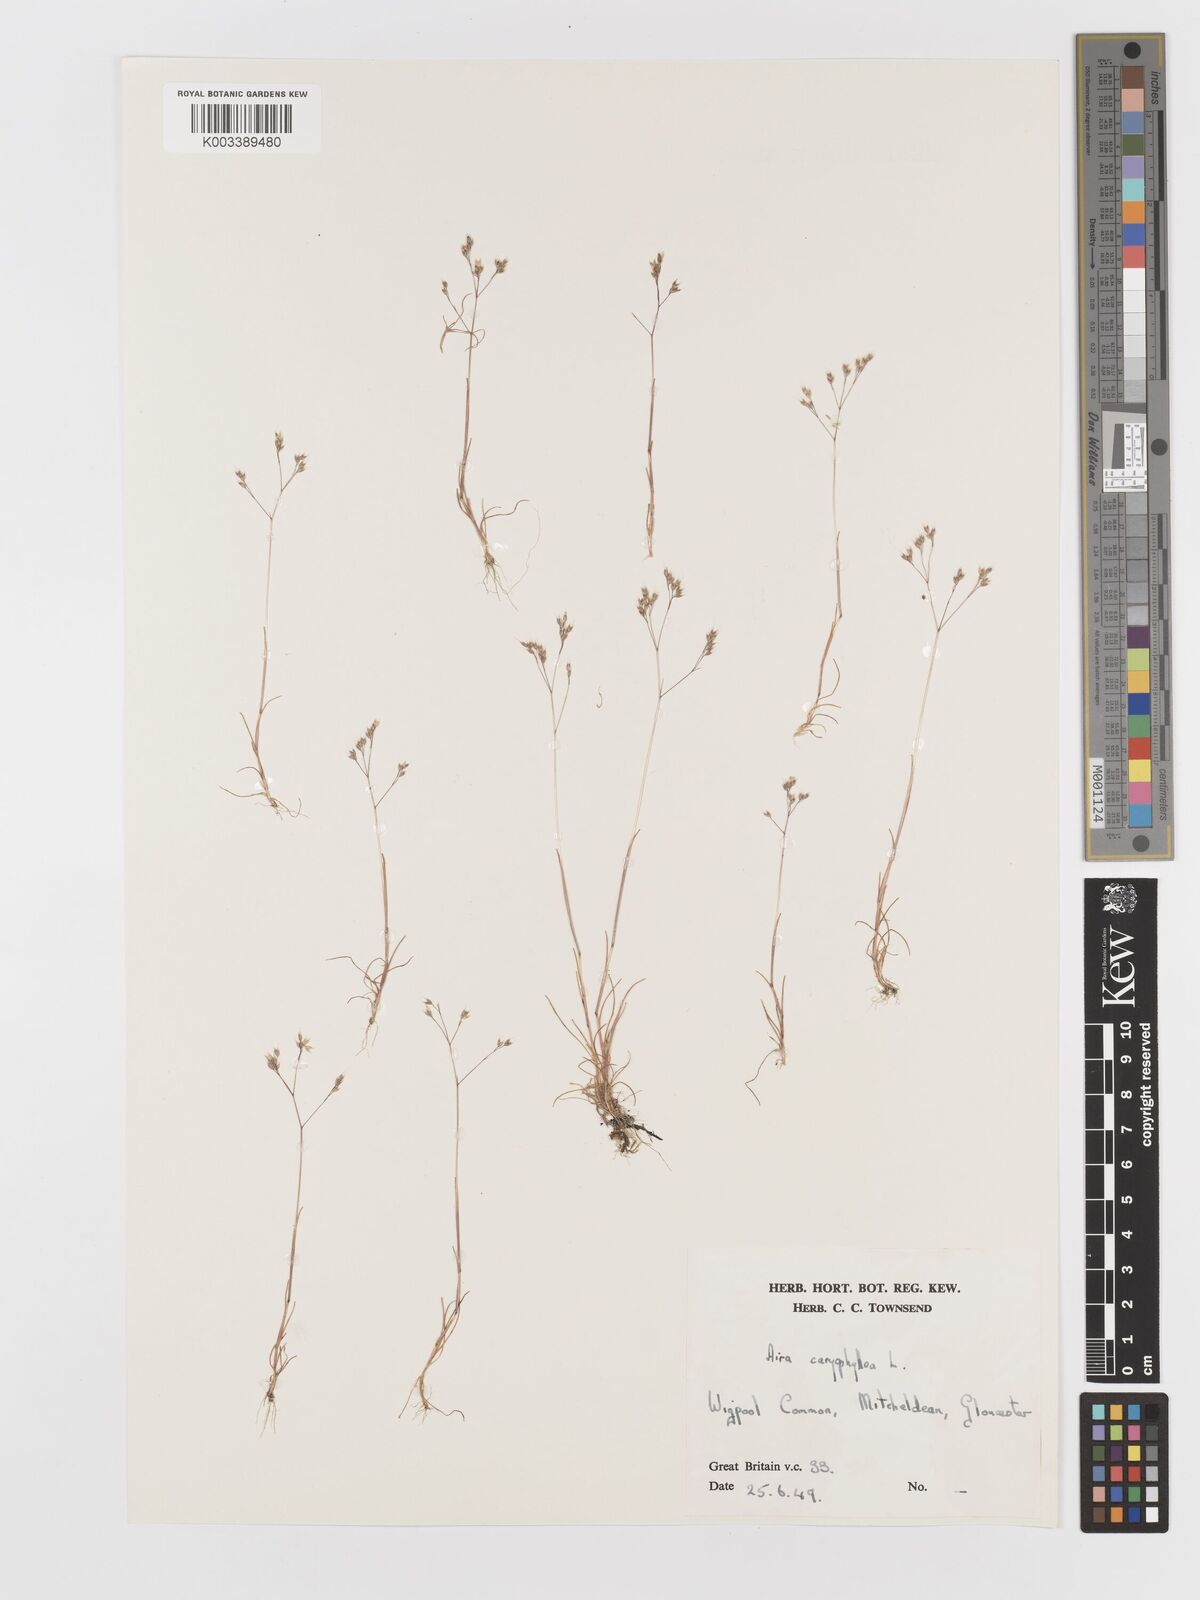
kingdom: Plantae
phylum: Tracheophyta
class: Liliopsida
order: Poales
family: Poaceae
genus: Aira
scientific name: Aira caryophyllea
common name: Silver hairgrass
